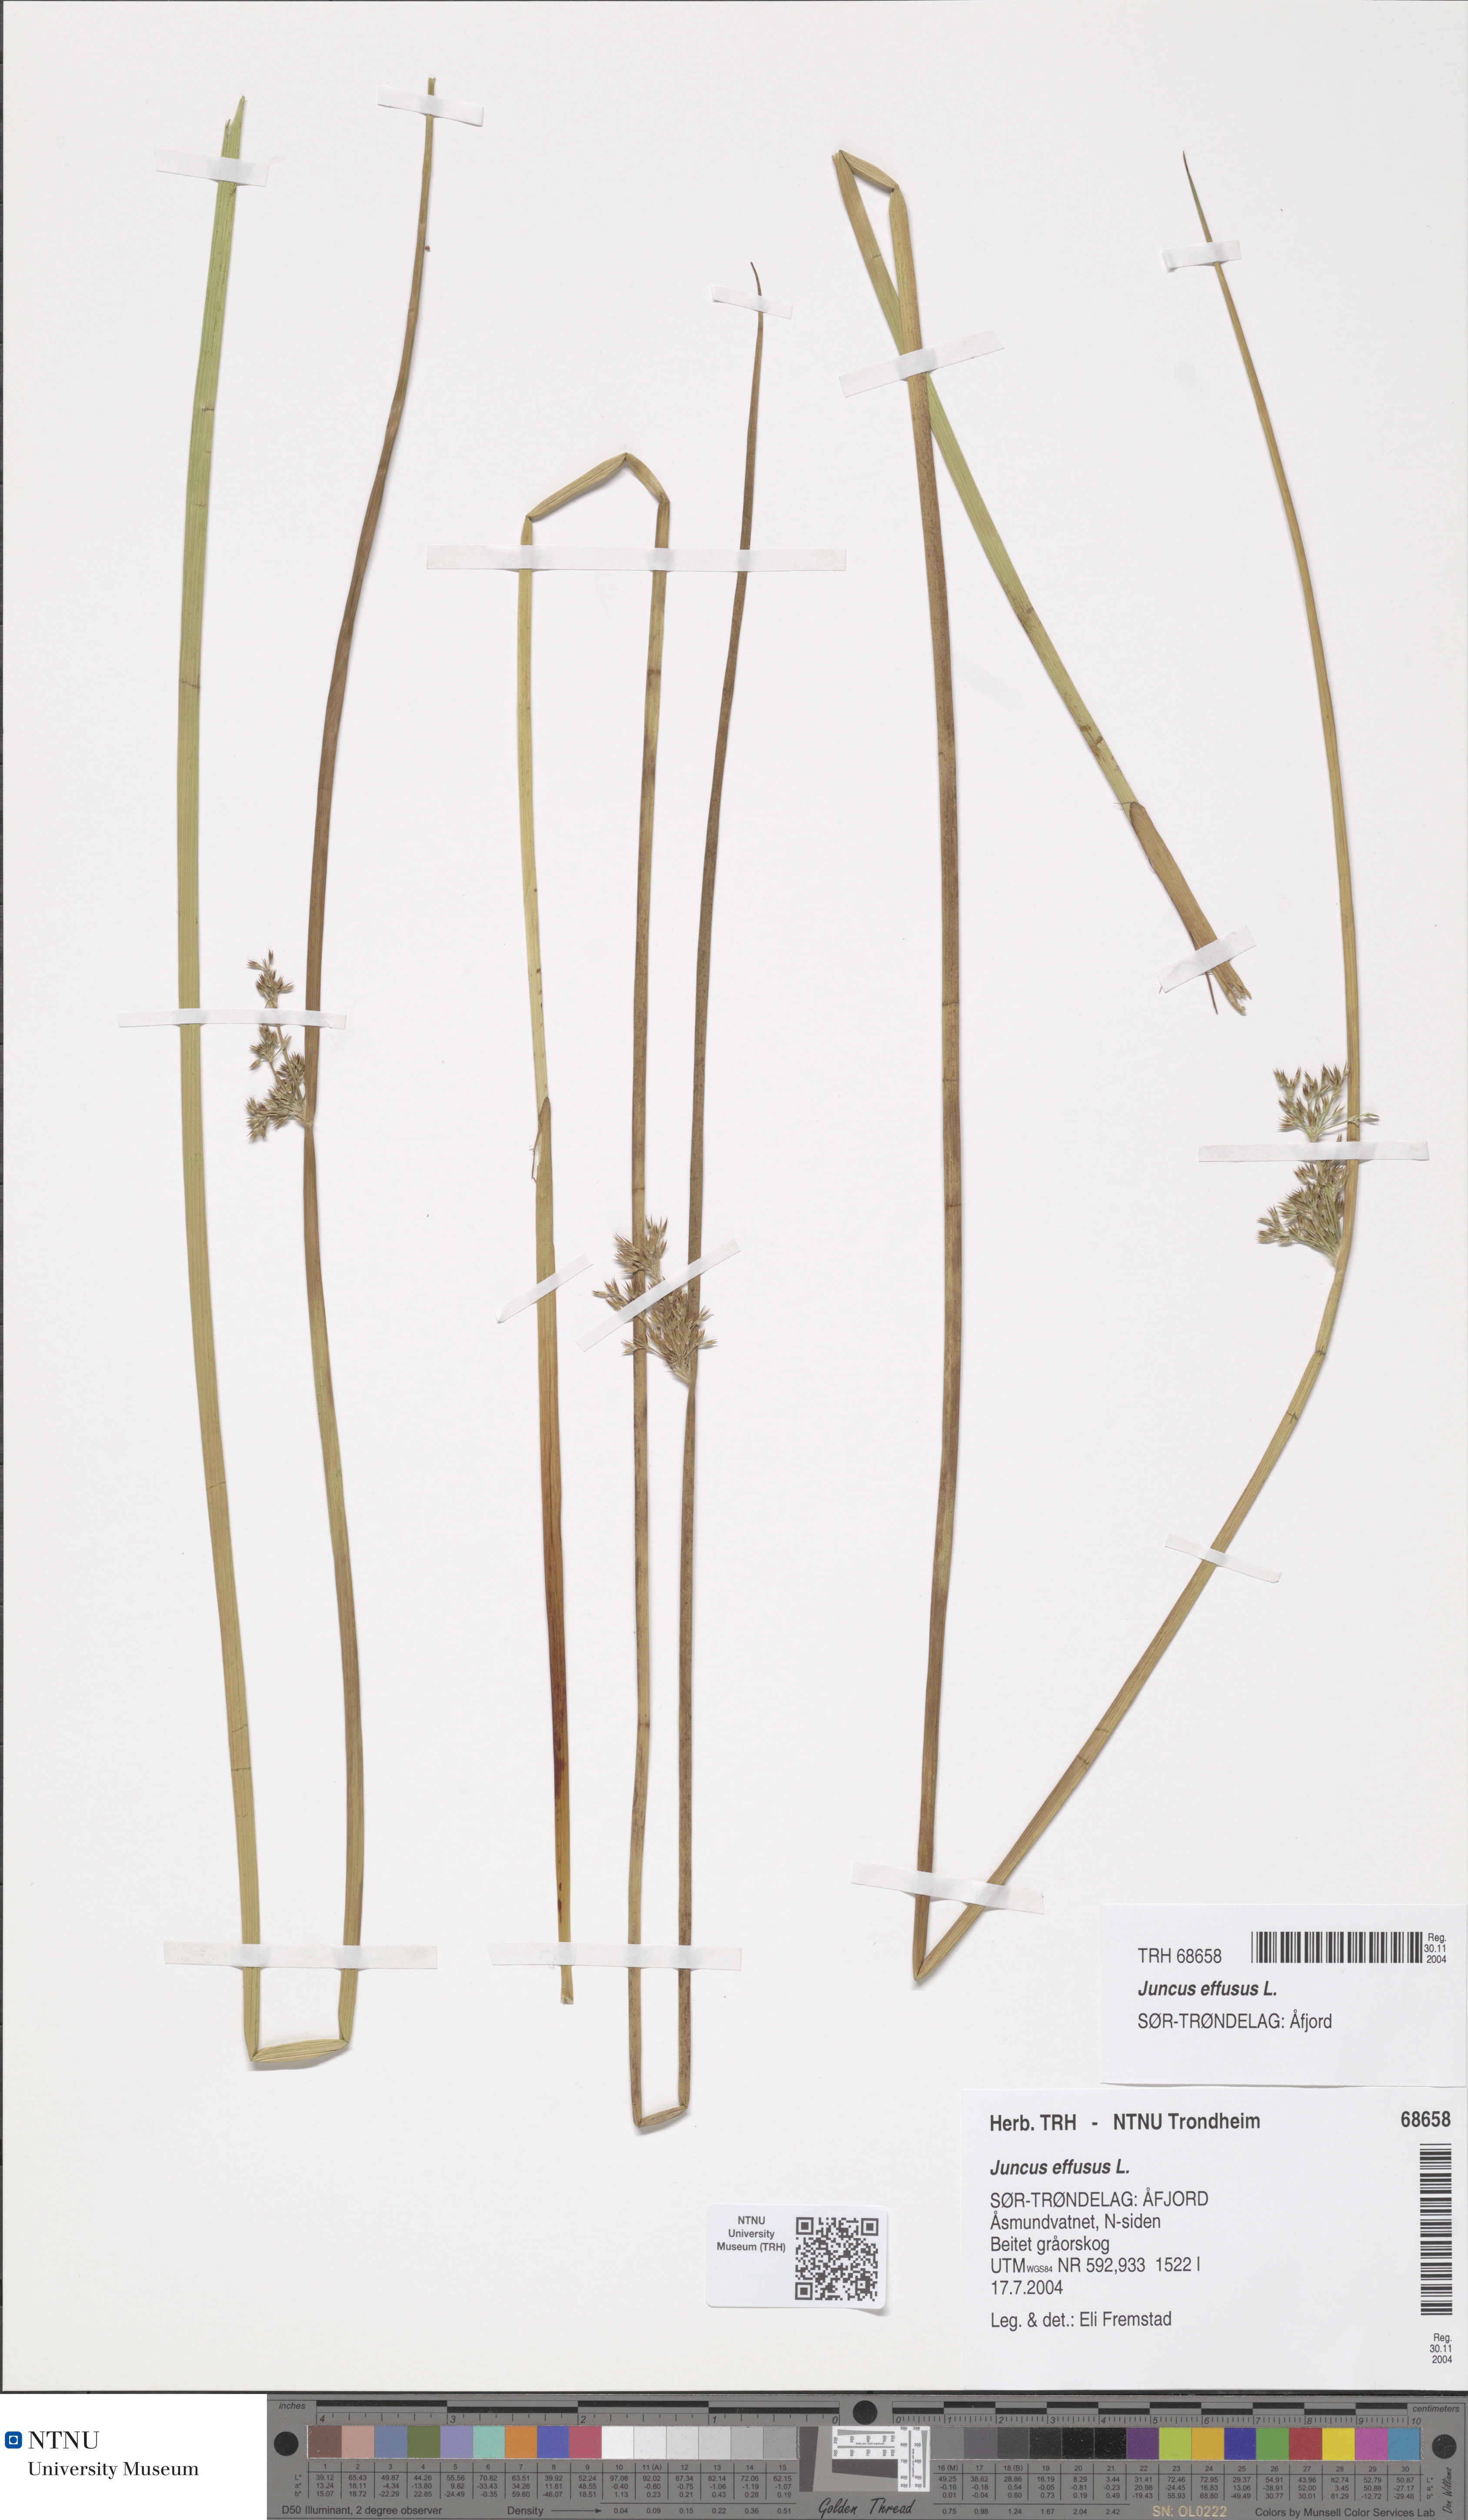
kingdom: Plantae
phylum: Tracheophyta
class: Liliopsida
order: Poales
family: Juncaceae
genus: Juncus
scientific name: Juncus effusus
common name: Soft rush
